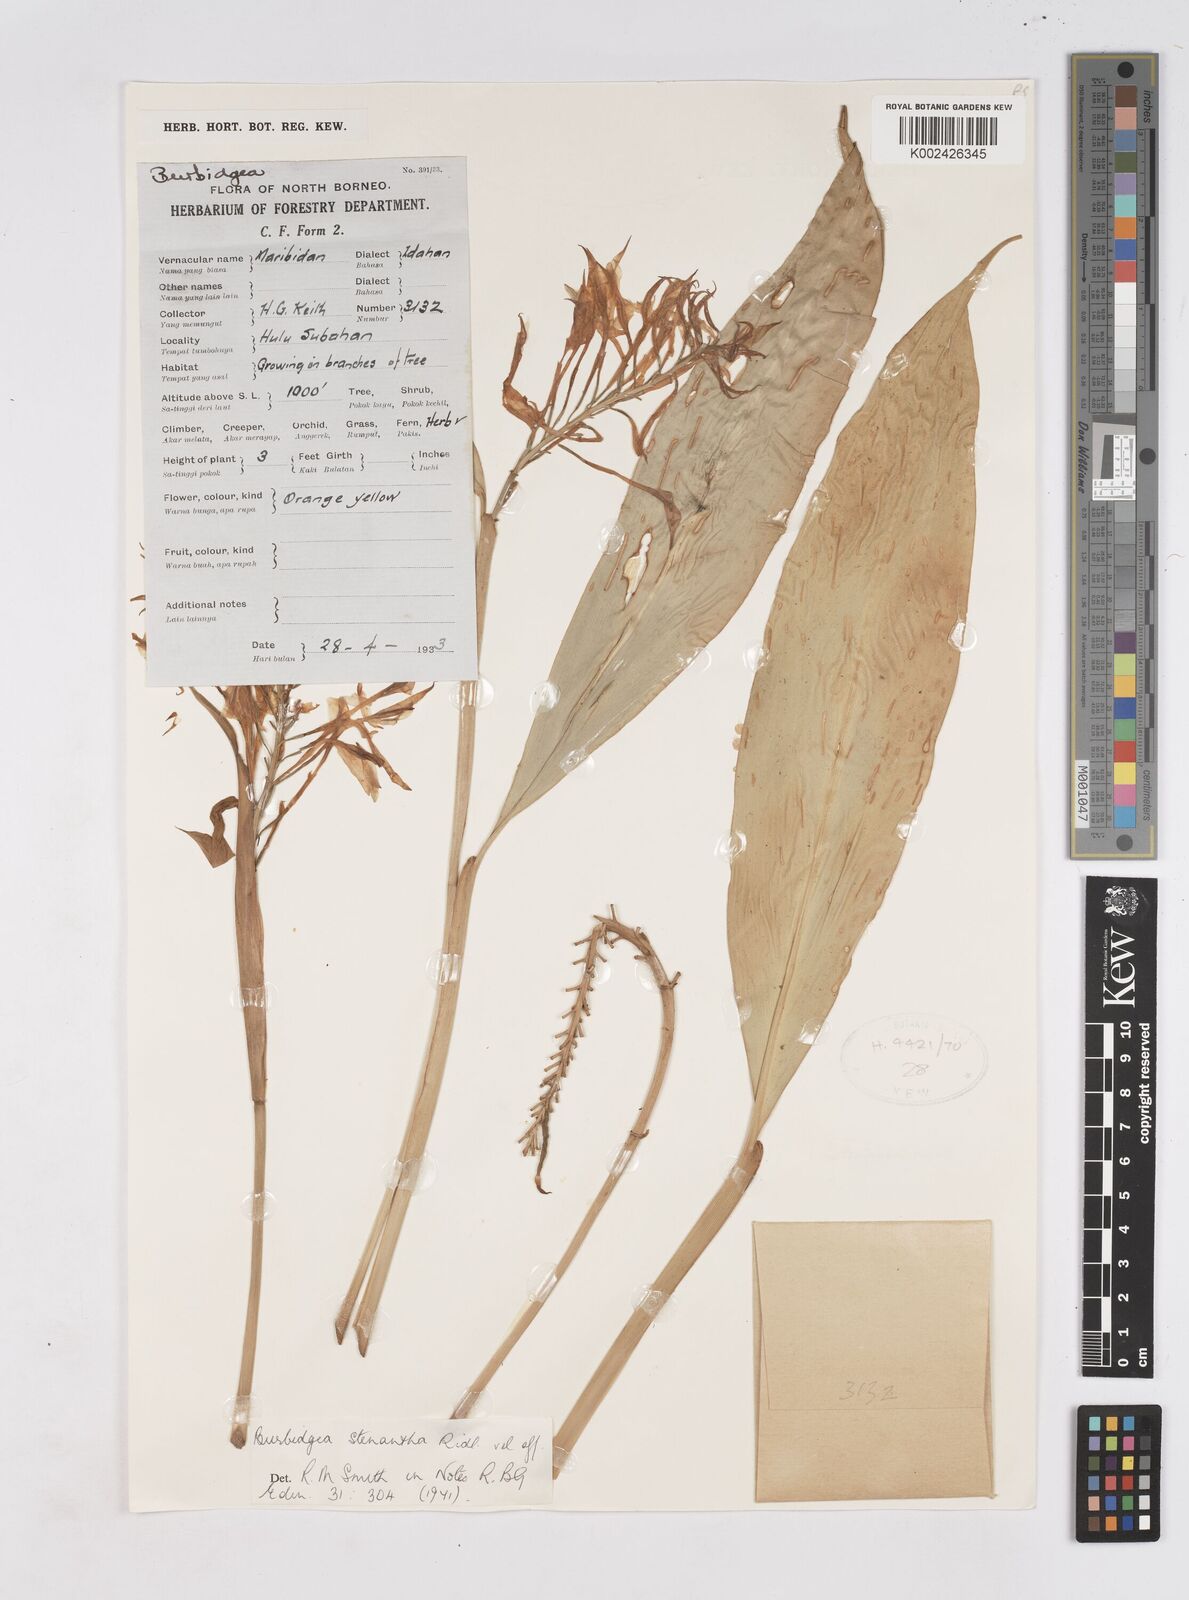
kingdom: Plantae
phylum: Tracheophyta
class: Liliopsida
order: Zingiberales
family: Zingiberaceae
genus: Burbidgea
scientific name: Burbidgea stenantha
